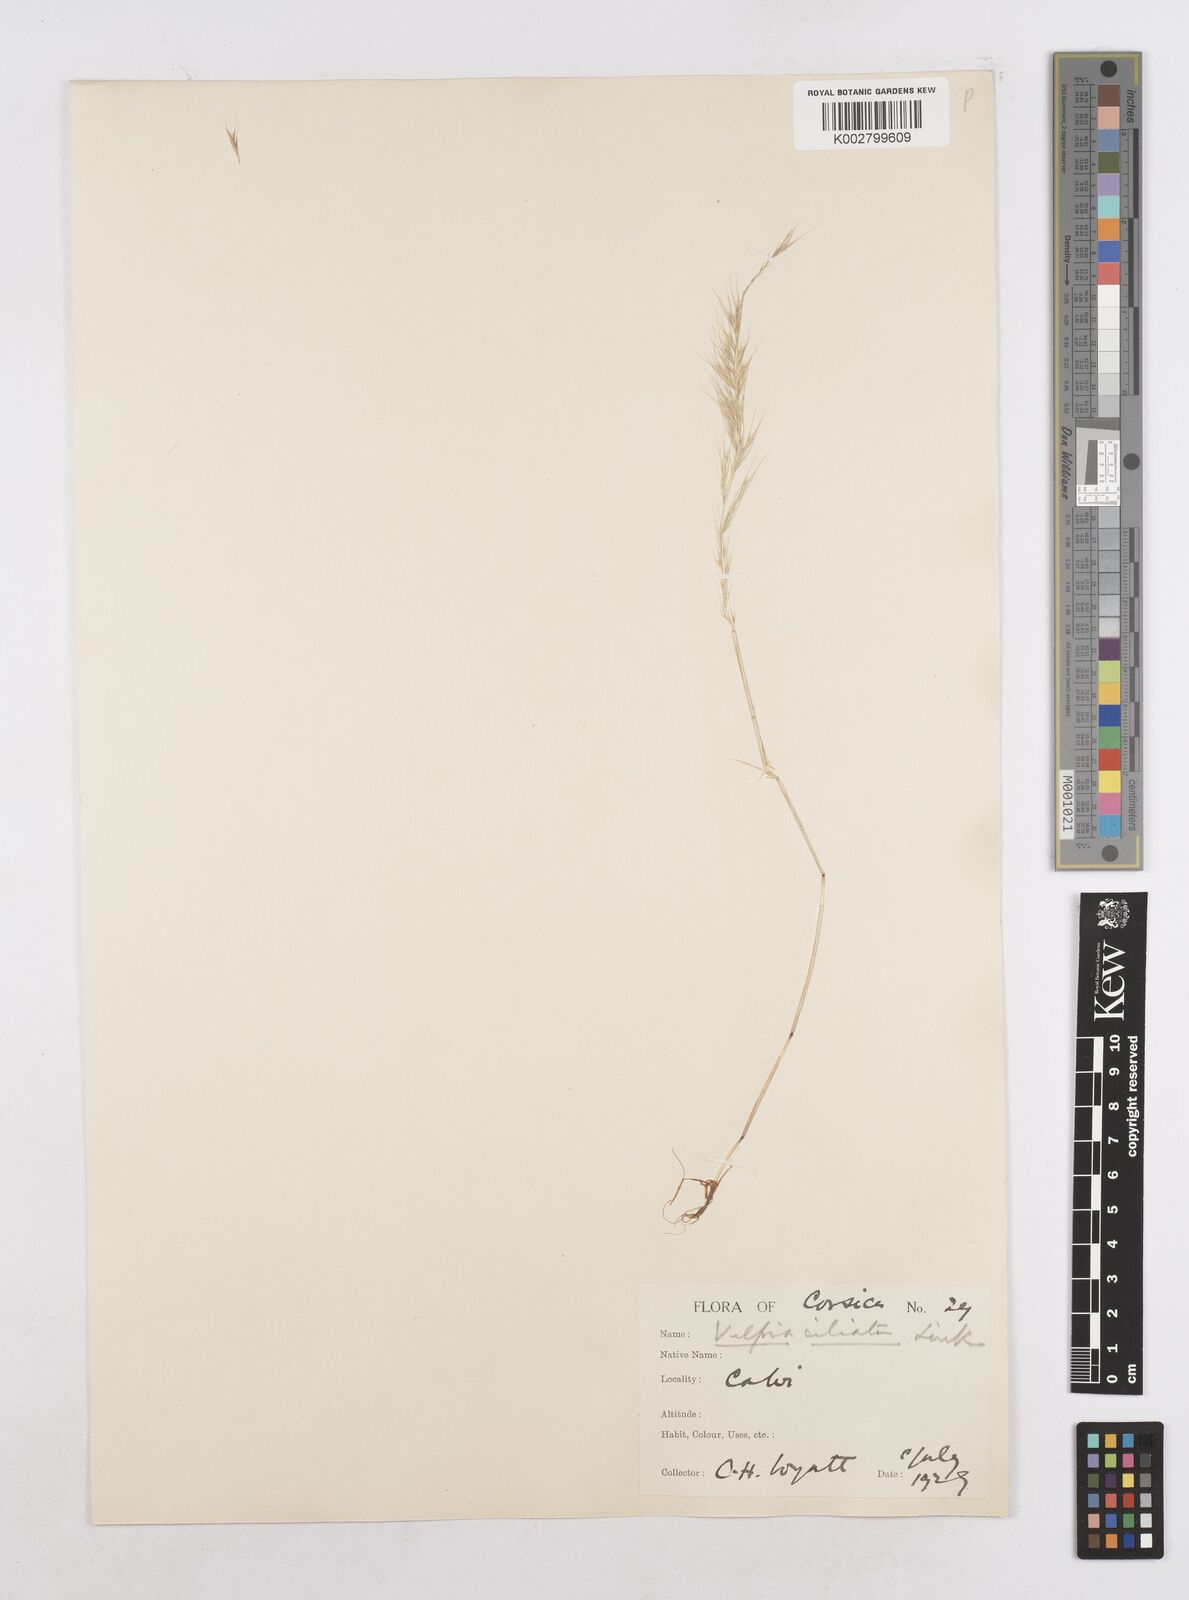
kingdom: Plantae
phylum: Tracheophyta
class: Liliopsida
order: Poales
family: Poaceae
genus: Festuca
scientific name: Festuca
